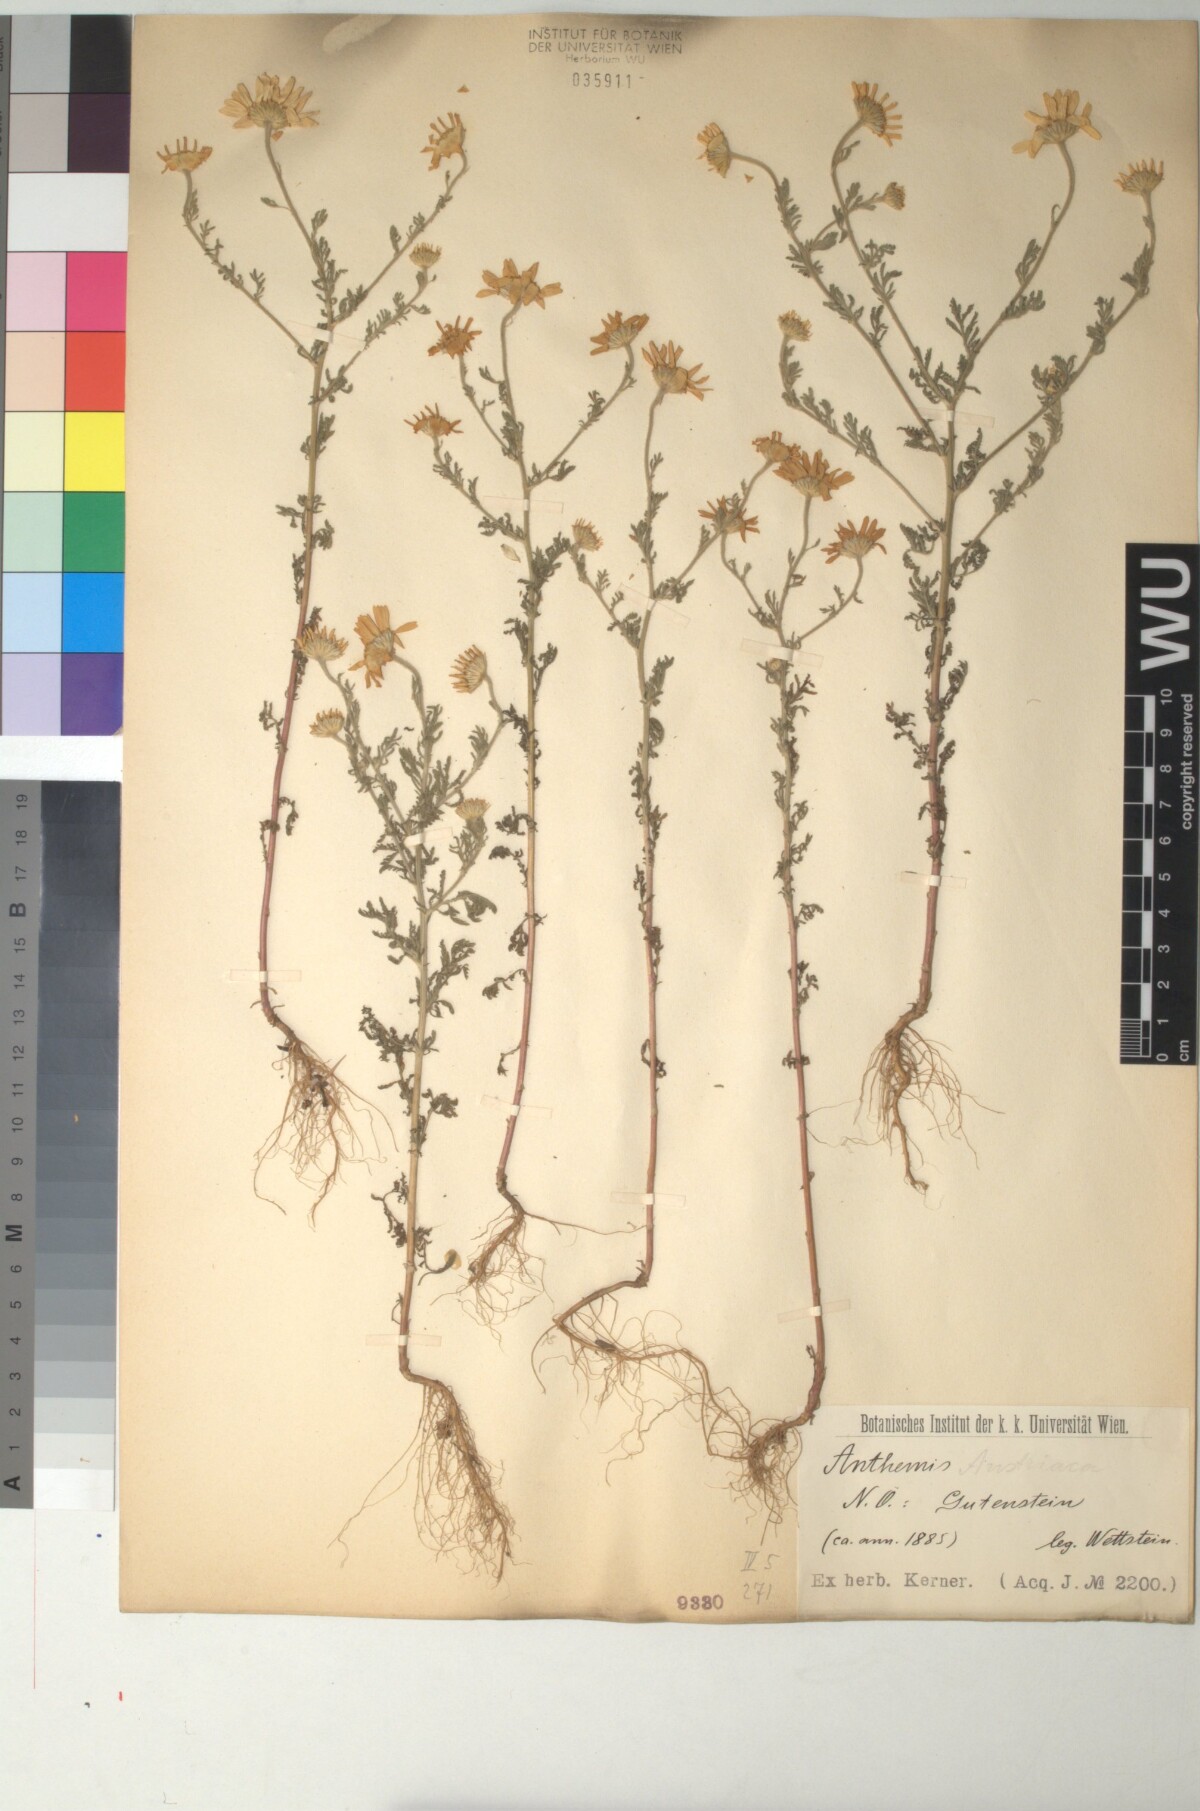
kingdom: Plantae
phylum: Tracheophyta
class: Magnoliopsida
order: Asterales
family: Asteraceae
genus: Cota
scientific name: Cota austriaca
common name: Austrian chamomile
